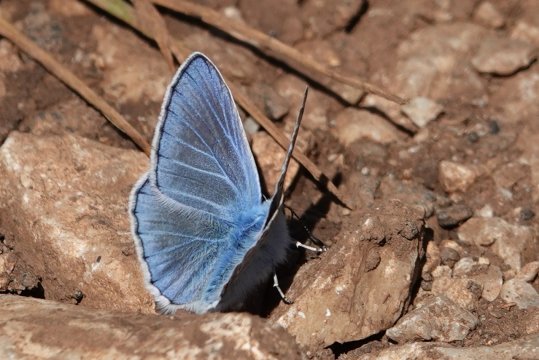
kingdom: Animalia
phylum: Arthropoda
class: Insecta
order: Lepidoptera
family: Lycaenidae
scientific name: Lycaenidae
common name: Turquoise Blue
